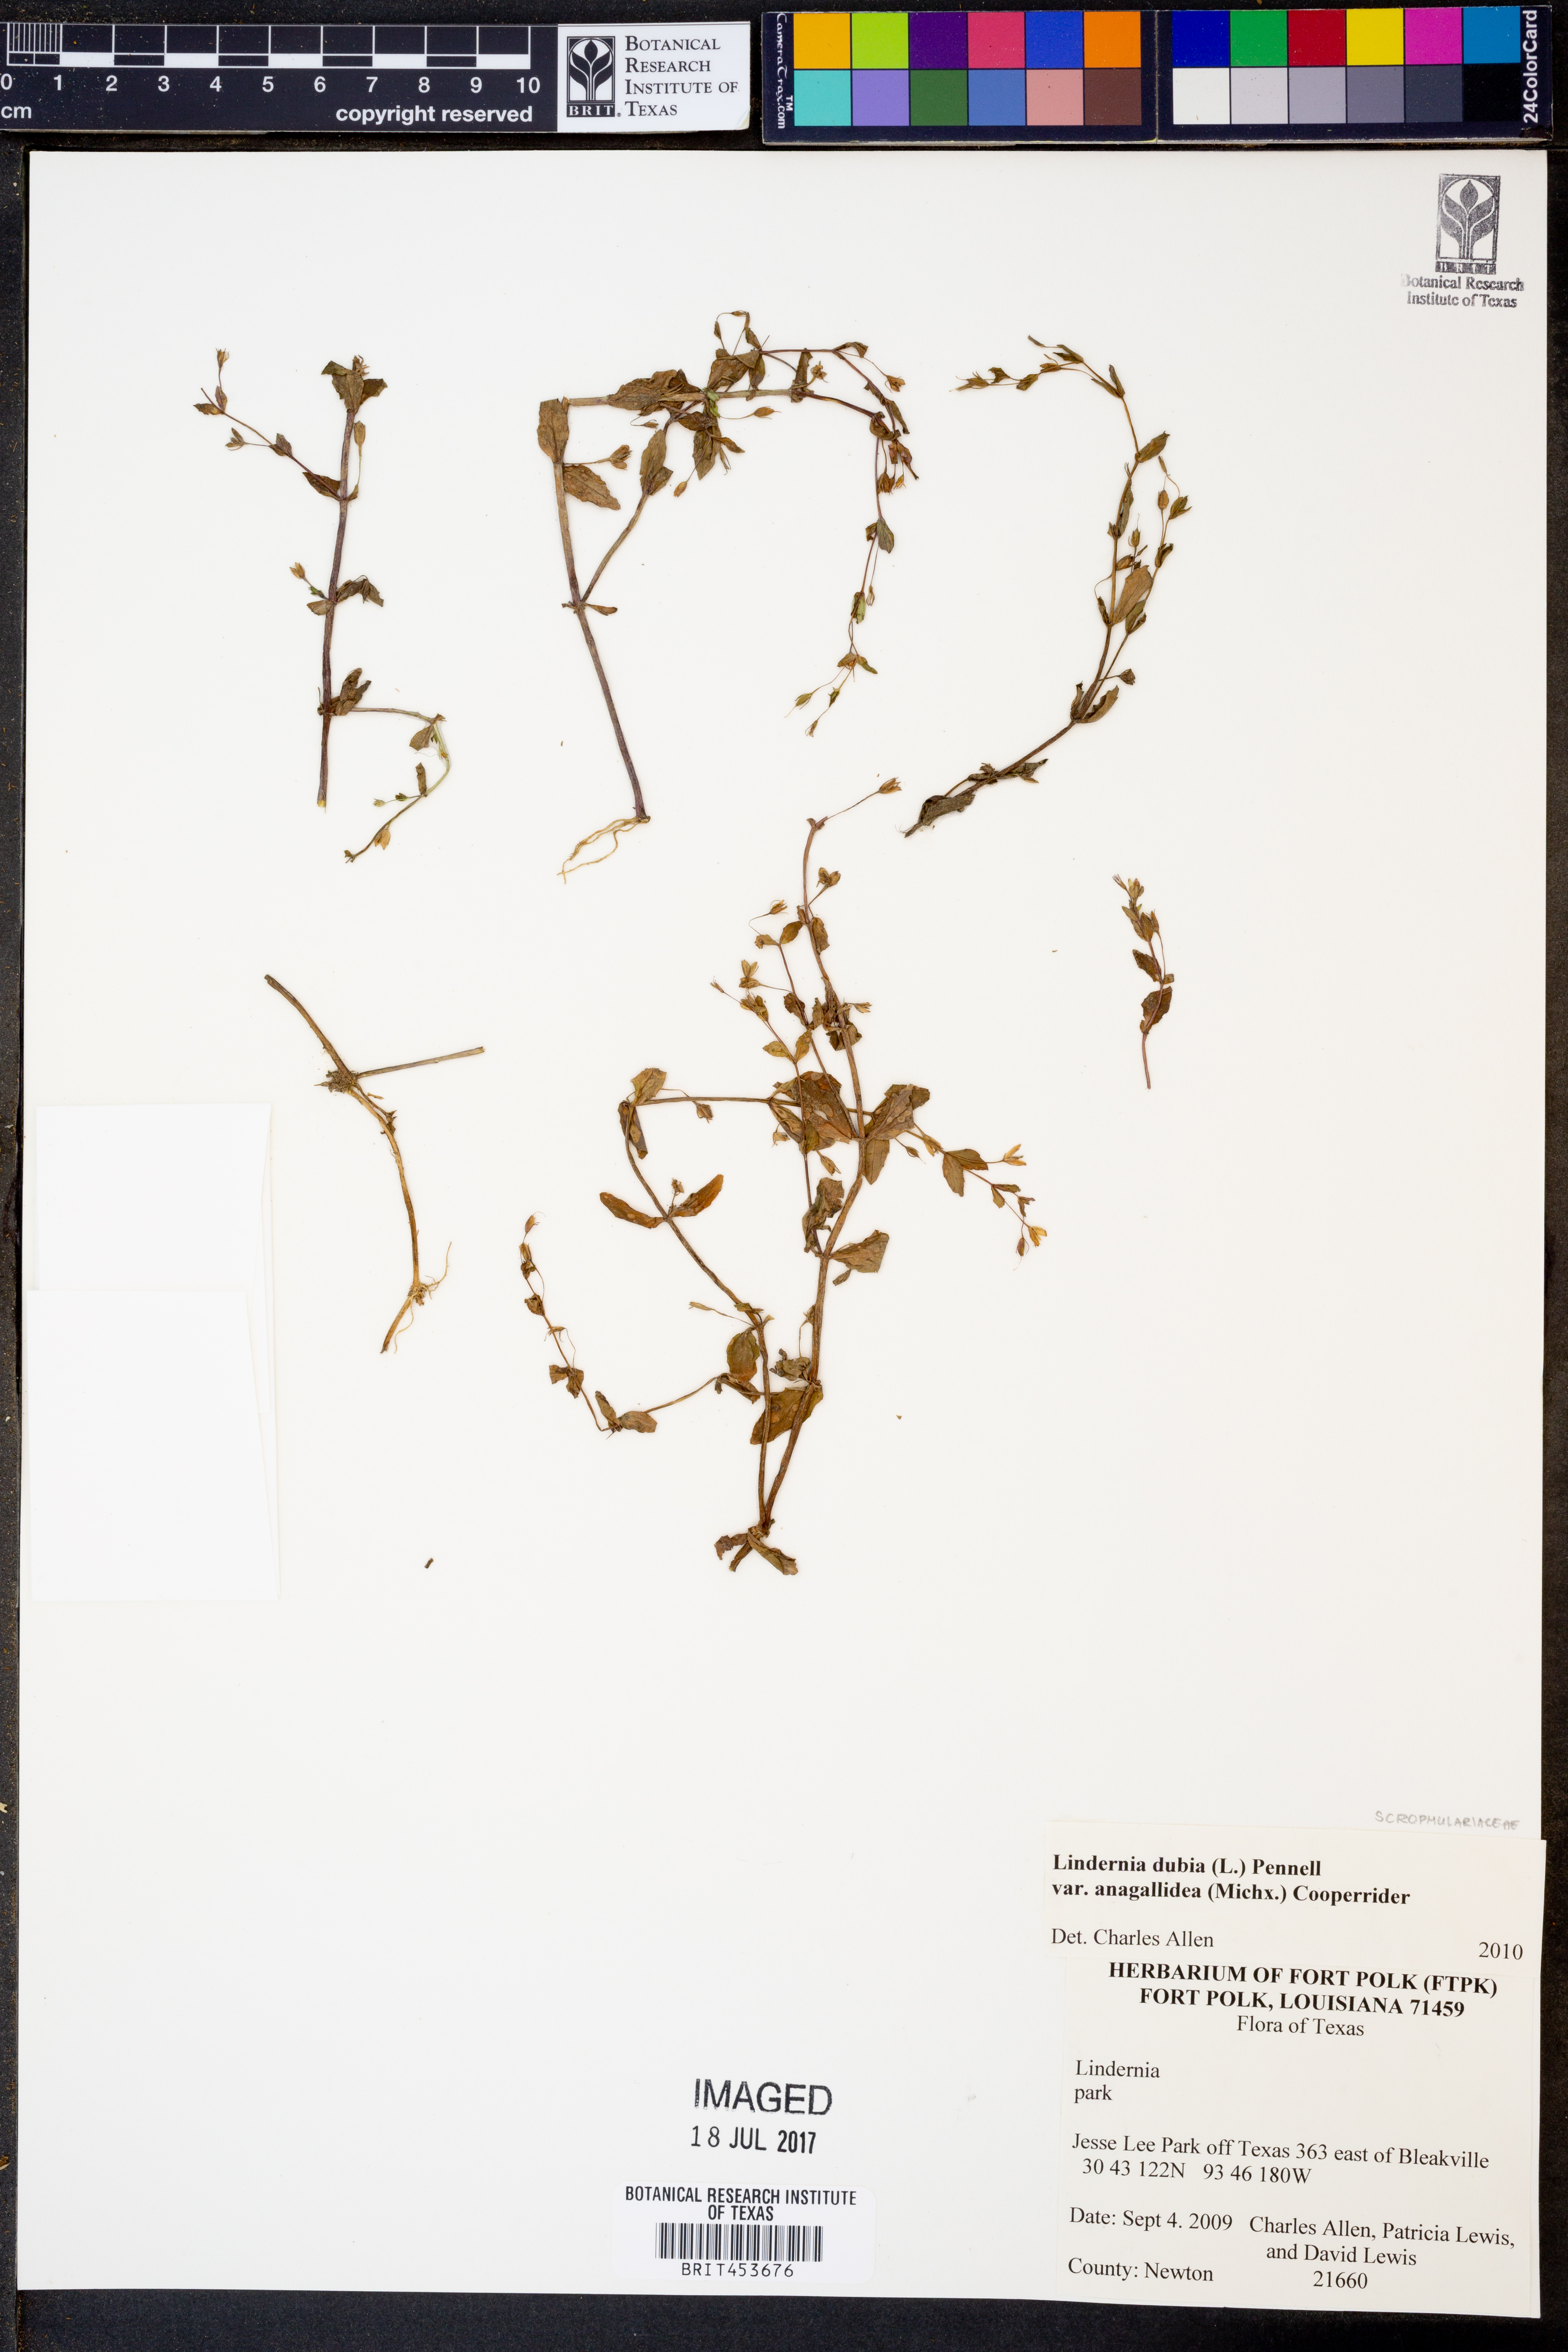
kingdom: Plantae
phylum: Tracheophyta
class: Magnoliopsida
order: Lamiales
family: Linderniaceae
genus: Lindernia
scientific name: Lindernia dubia
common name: Annual false pimpernel
